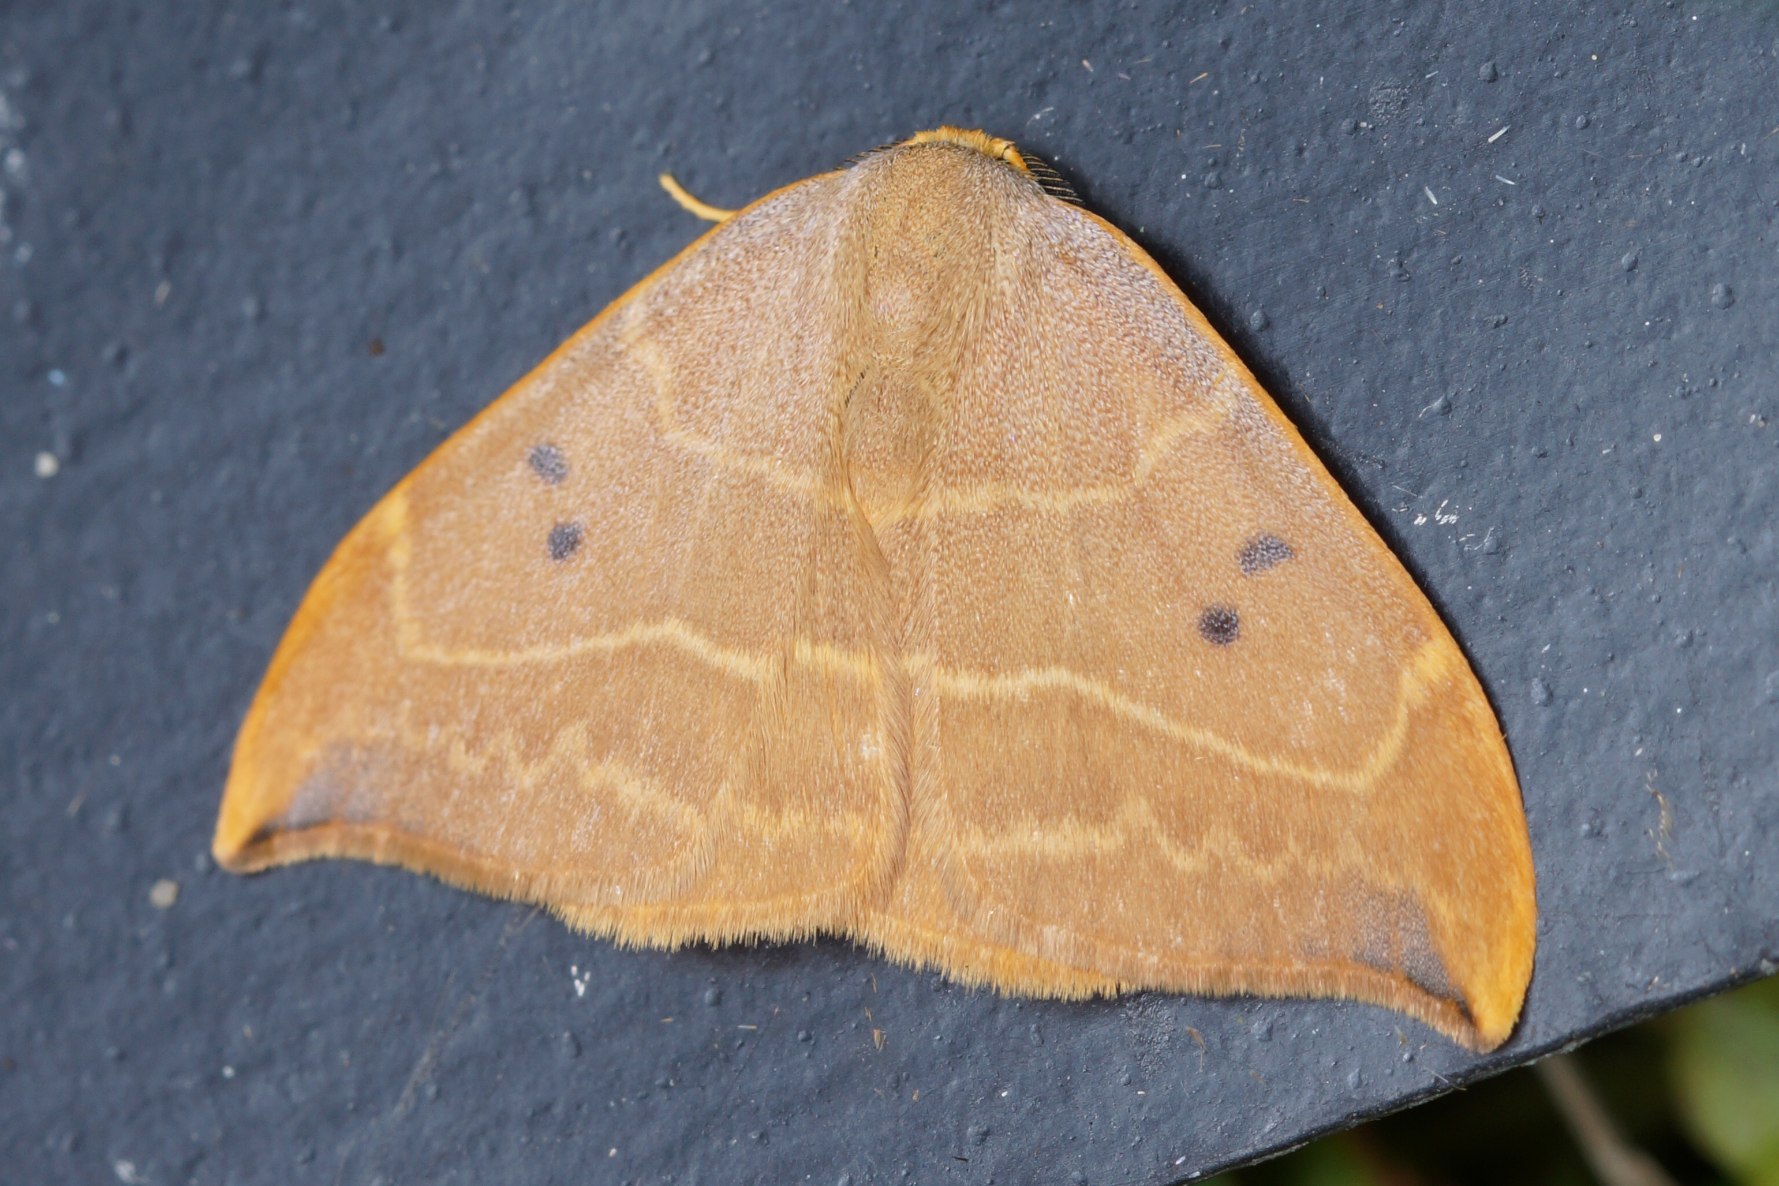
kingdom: Animalia
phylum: Arthropoda
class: Insecta
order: Lepidoptera
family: Drepanidae
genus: Watsonalla
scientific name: Watsonalla binaria
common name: Toplettet seglvinge
